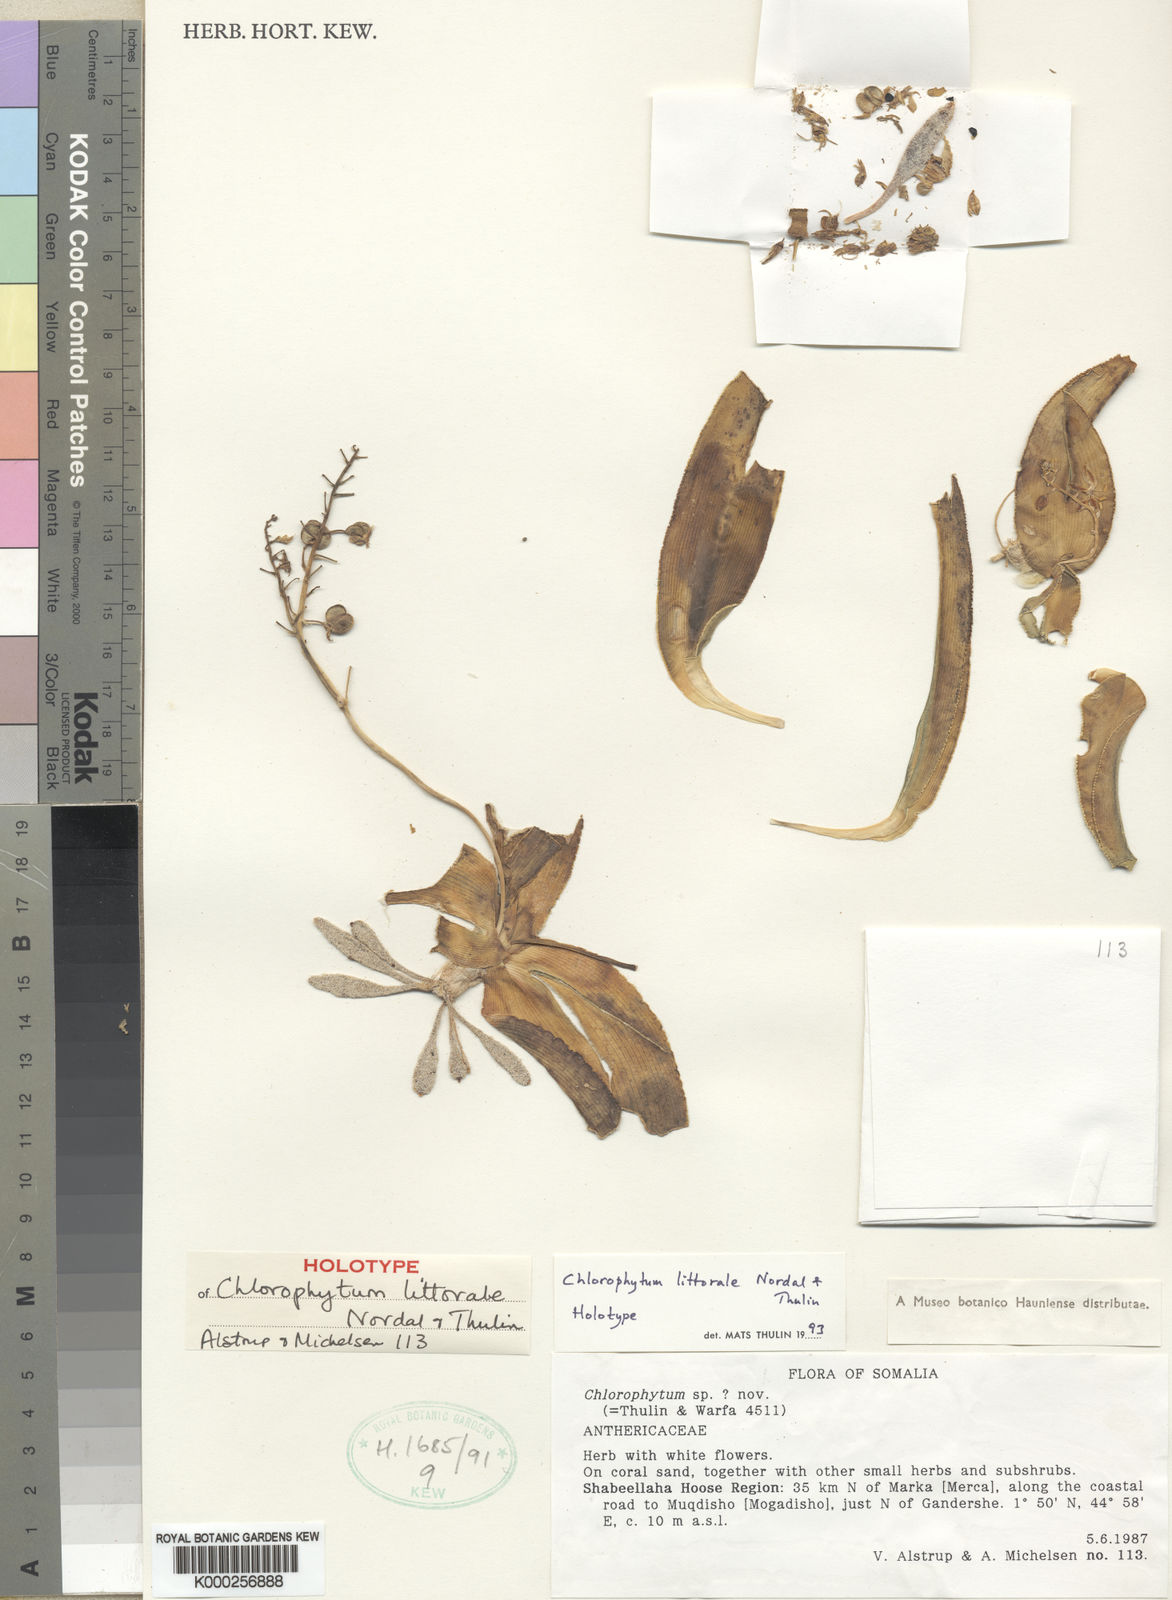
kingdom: Plantae
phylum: Tracheophyta
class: Liliopsida
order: Asparagales
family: Asparagaceae
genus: Chlorophytum
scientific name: Chlorophytum littorale
